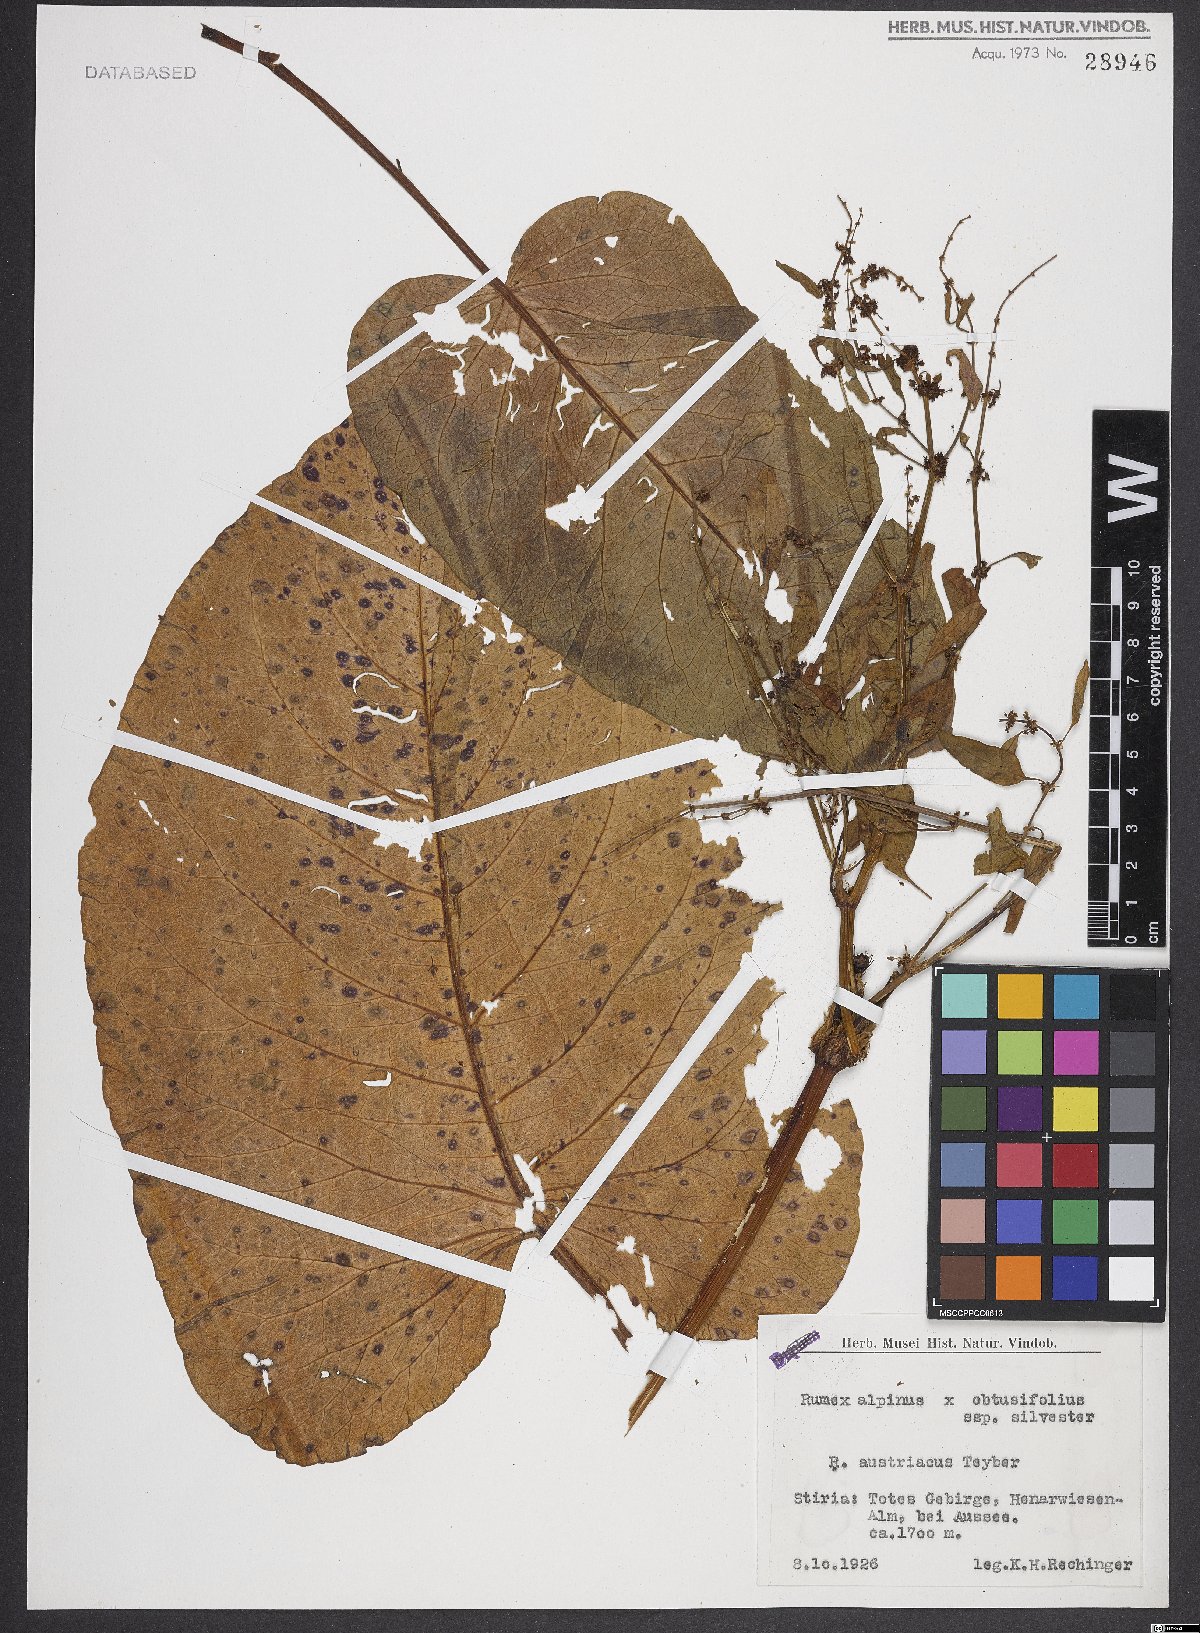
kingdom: Plantae
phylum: Tracheophyta
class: Magnoliopsida
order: Caryophyllales
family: Polygonaceae
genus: Rumex
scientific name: Rumex alpinus
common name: Alpine dock
